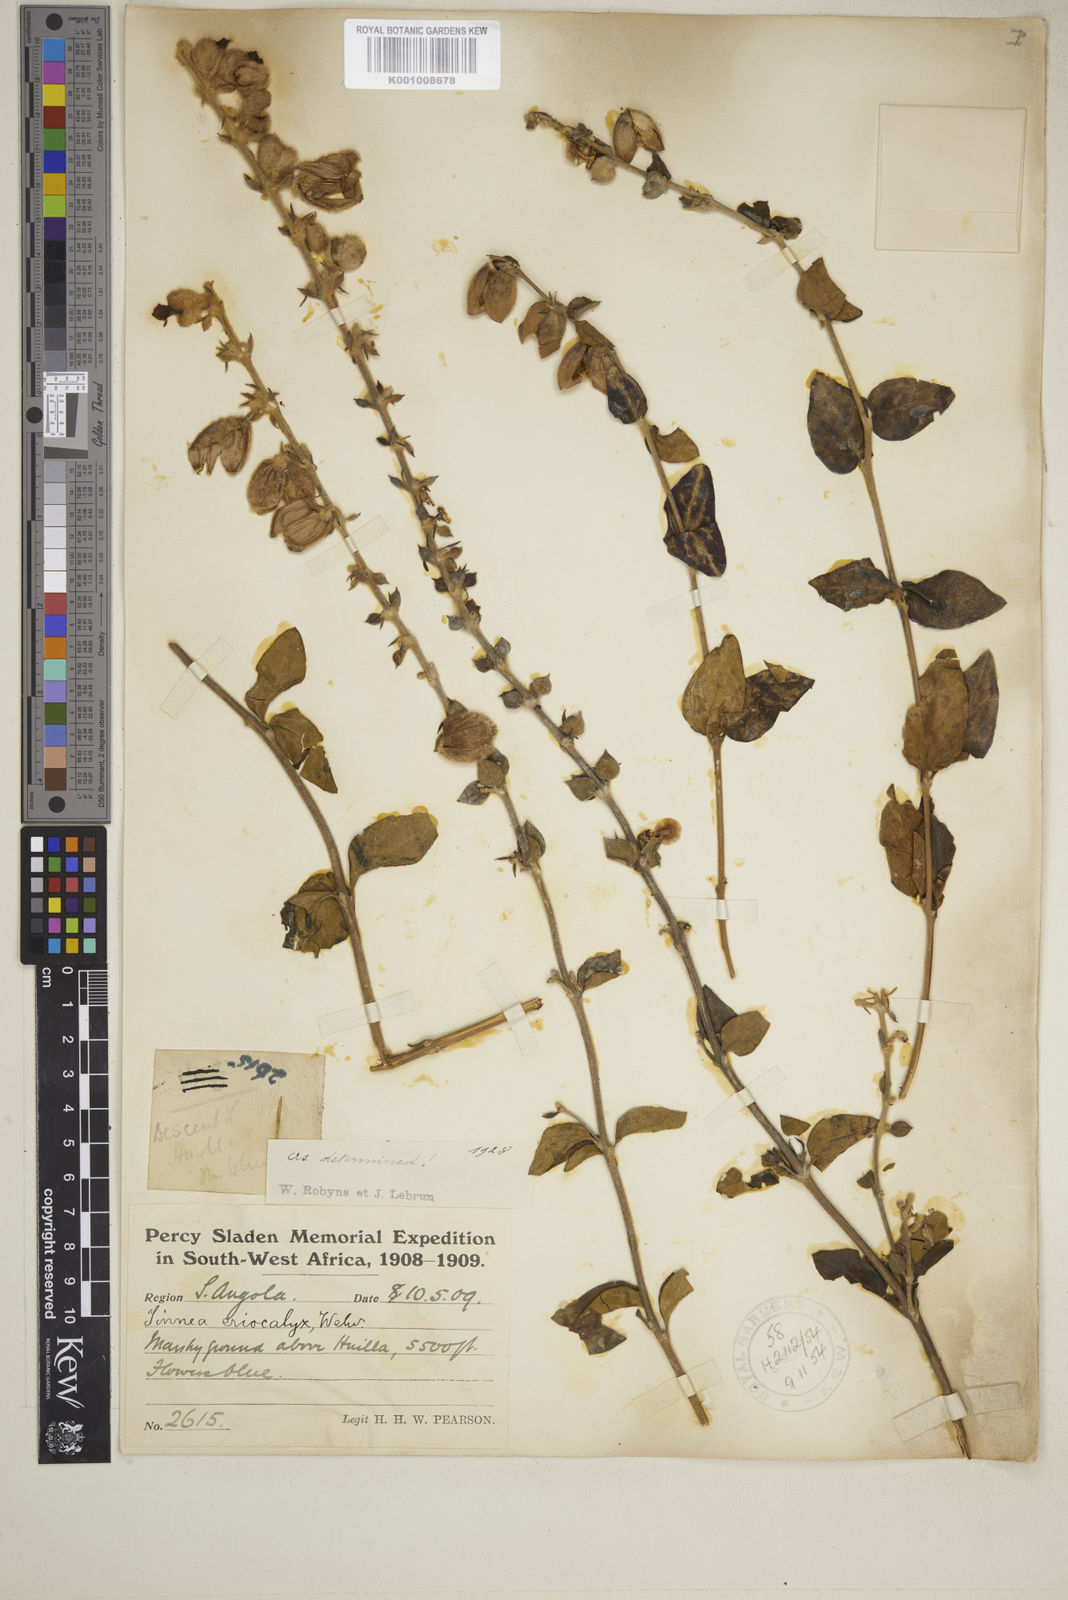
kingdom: Plantae
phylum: Tracheophyta
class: Magnoliopsida
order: Lamiales
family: Lamiaceae
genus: Tinnea
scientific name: Tinnea eriocalyx
